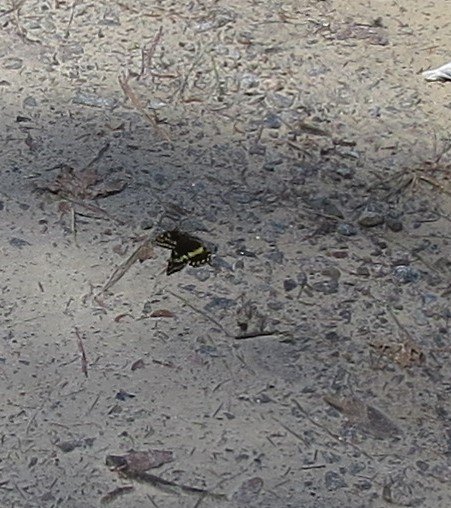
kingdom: Animalia
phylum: Arthropoda
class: Insecta
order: Lepidoptera
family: Papilionidae
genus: Pterourus
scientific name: Pterourus palamedes
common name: Palamedes Swallowtail
